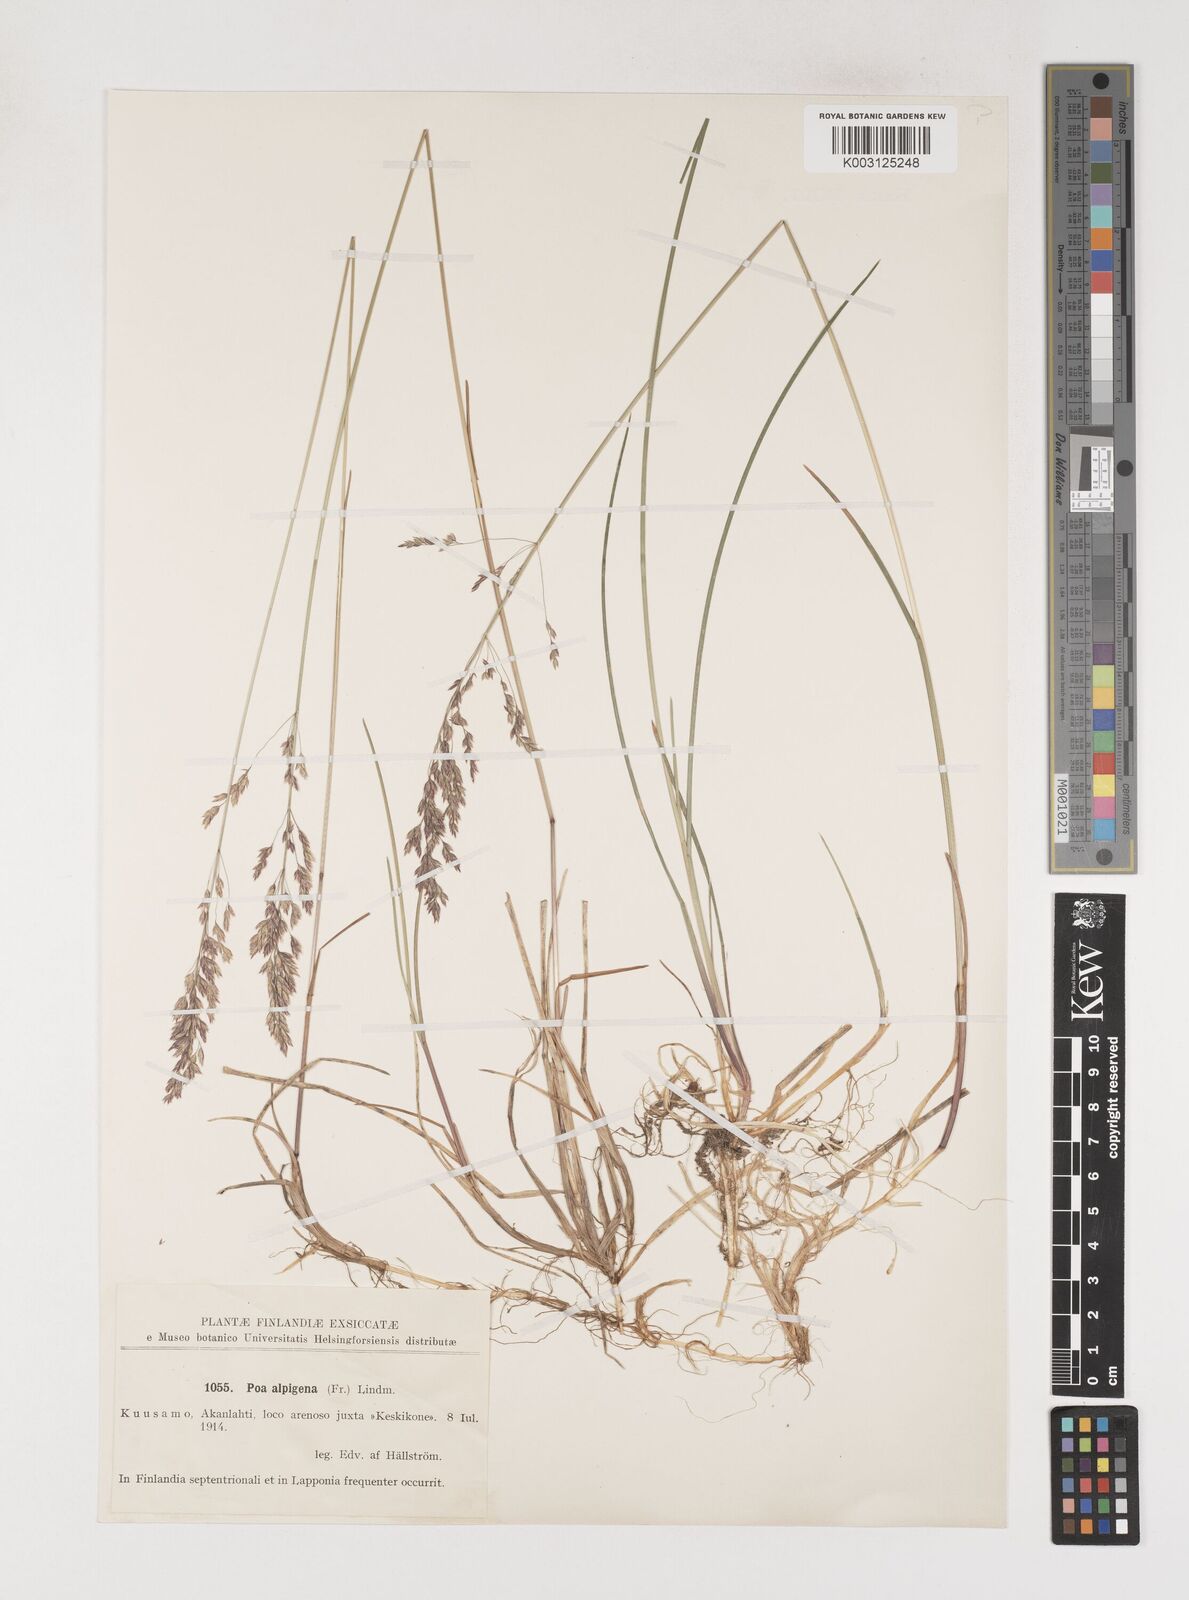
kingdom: Plantae
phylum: Tracheophyta
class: Liliopsida
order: Poales
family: Poaceae
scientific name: Poaceae
